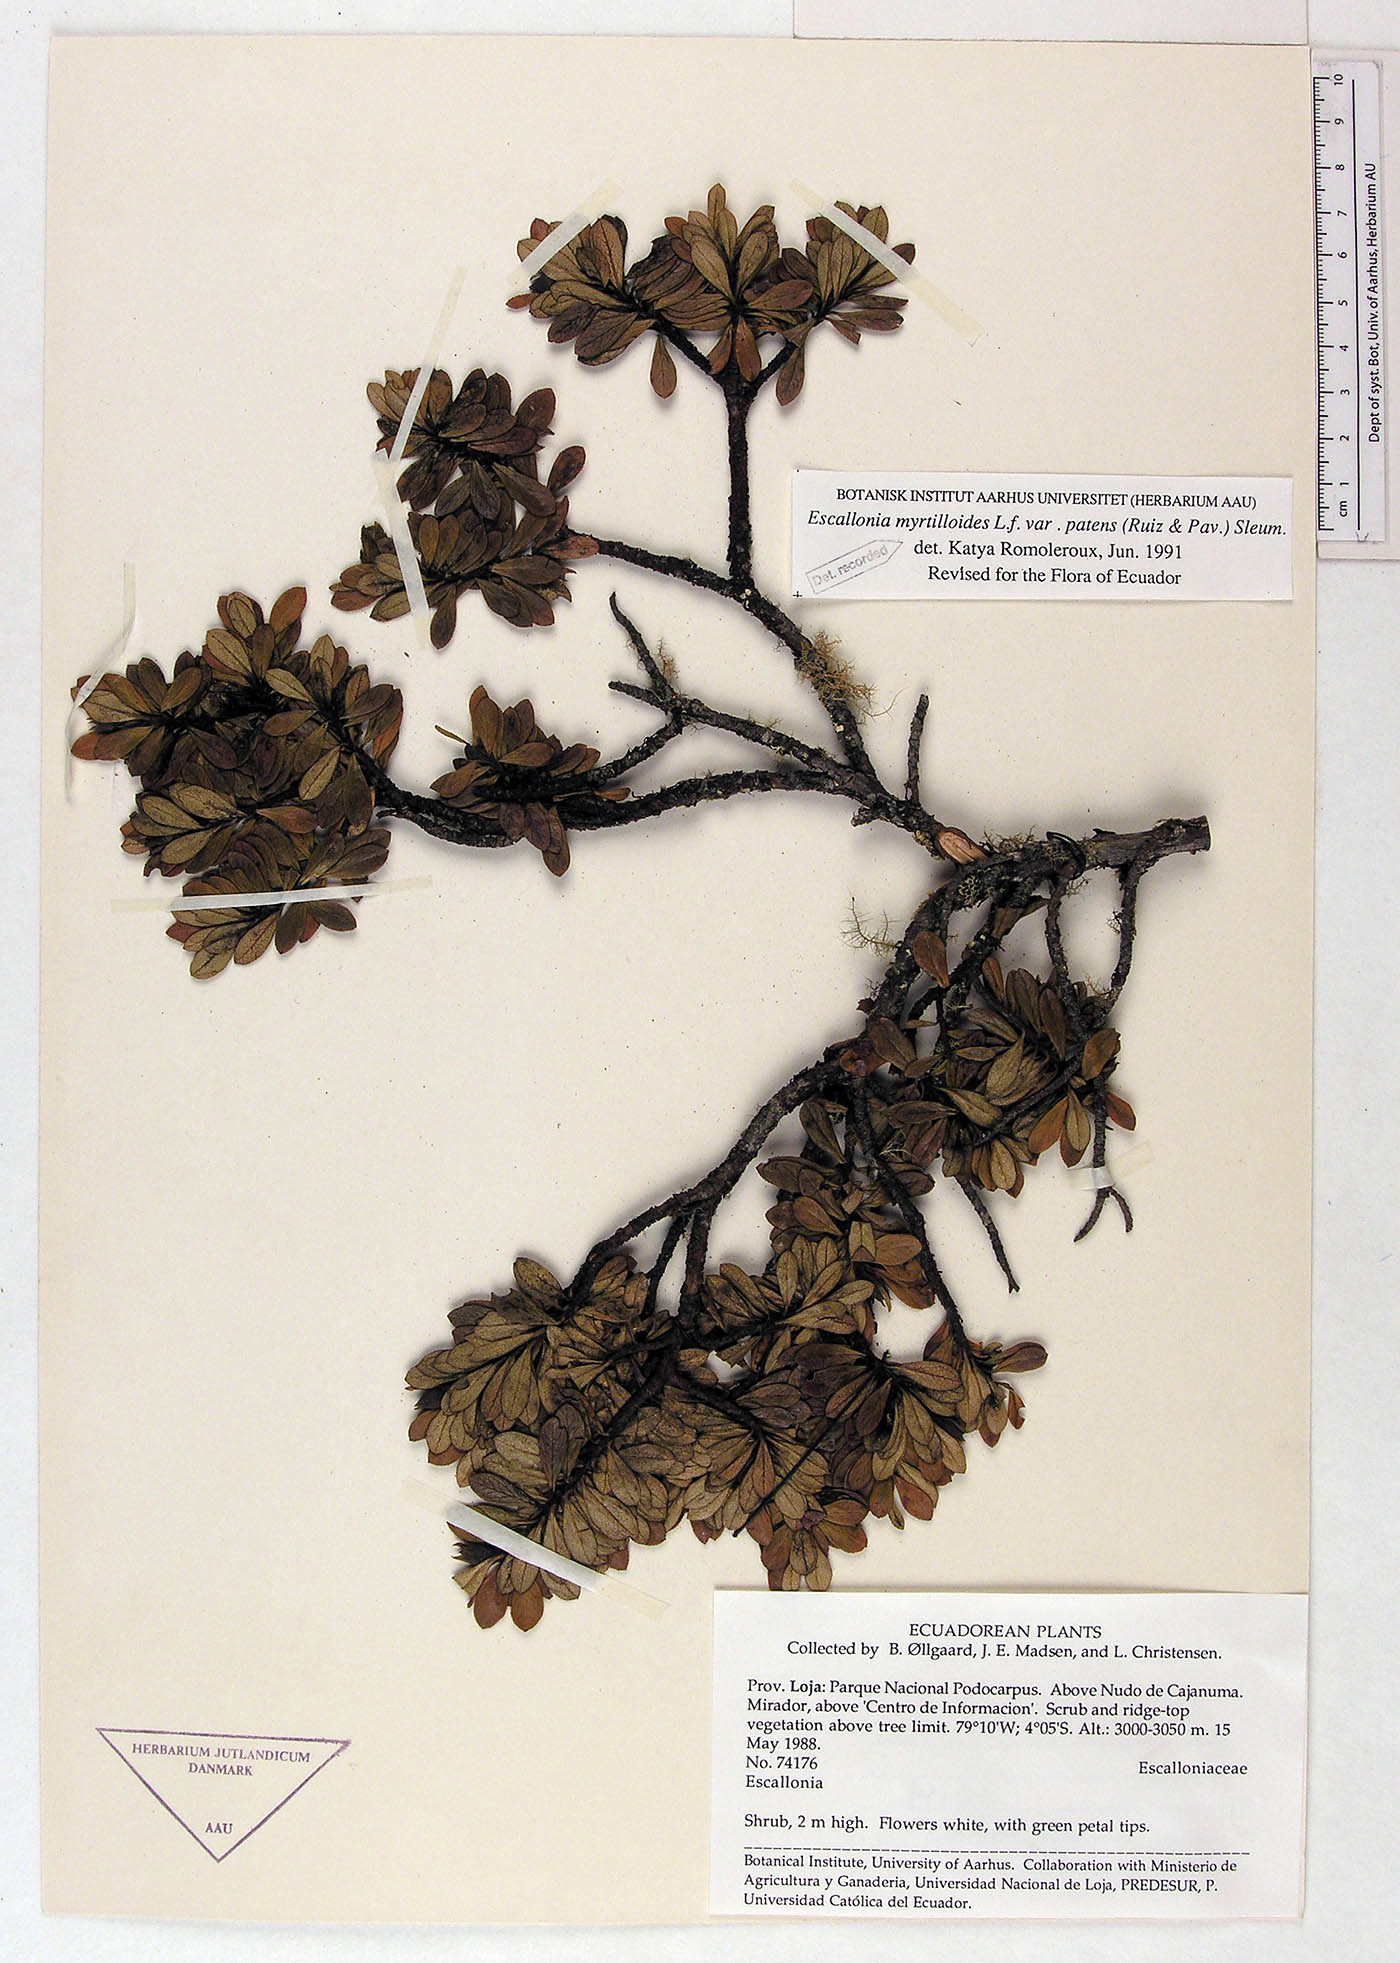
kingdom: Plantae
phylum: Tracheophyta
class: Magnoliopsida
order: Escalloniales
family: Escalloniaceae
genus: Escallonia
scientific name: Escallonia myrtilloides
